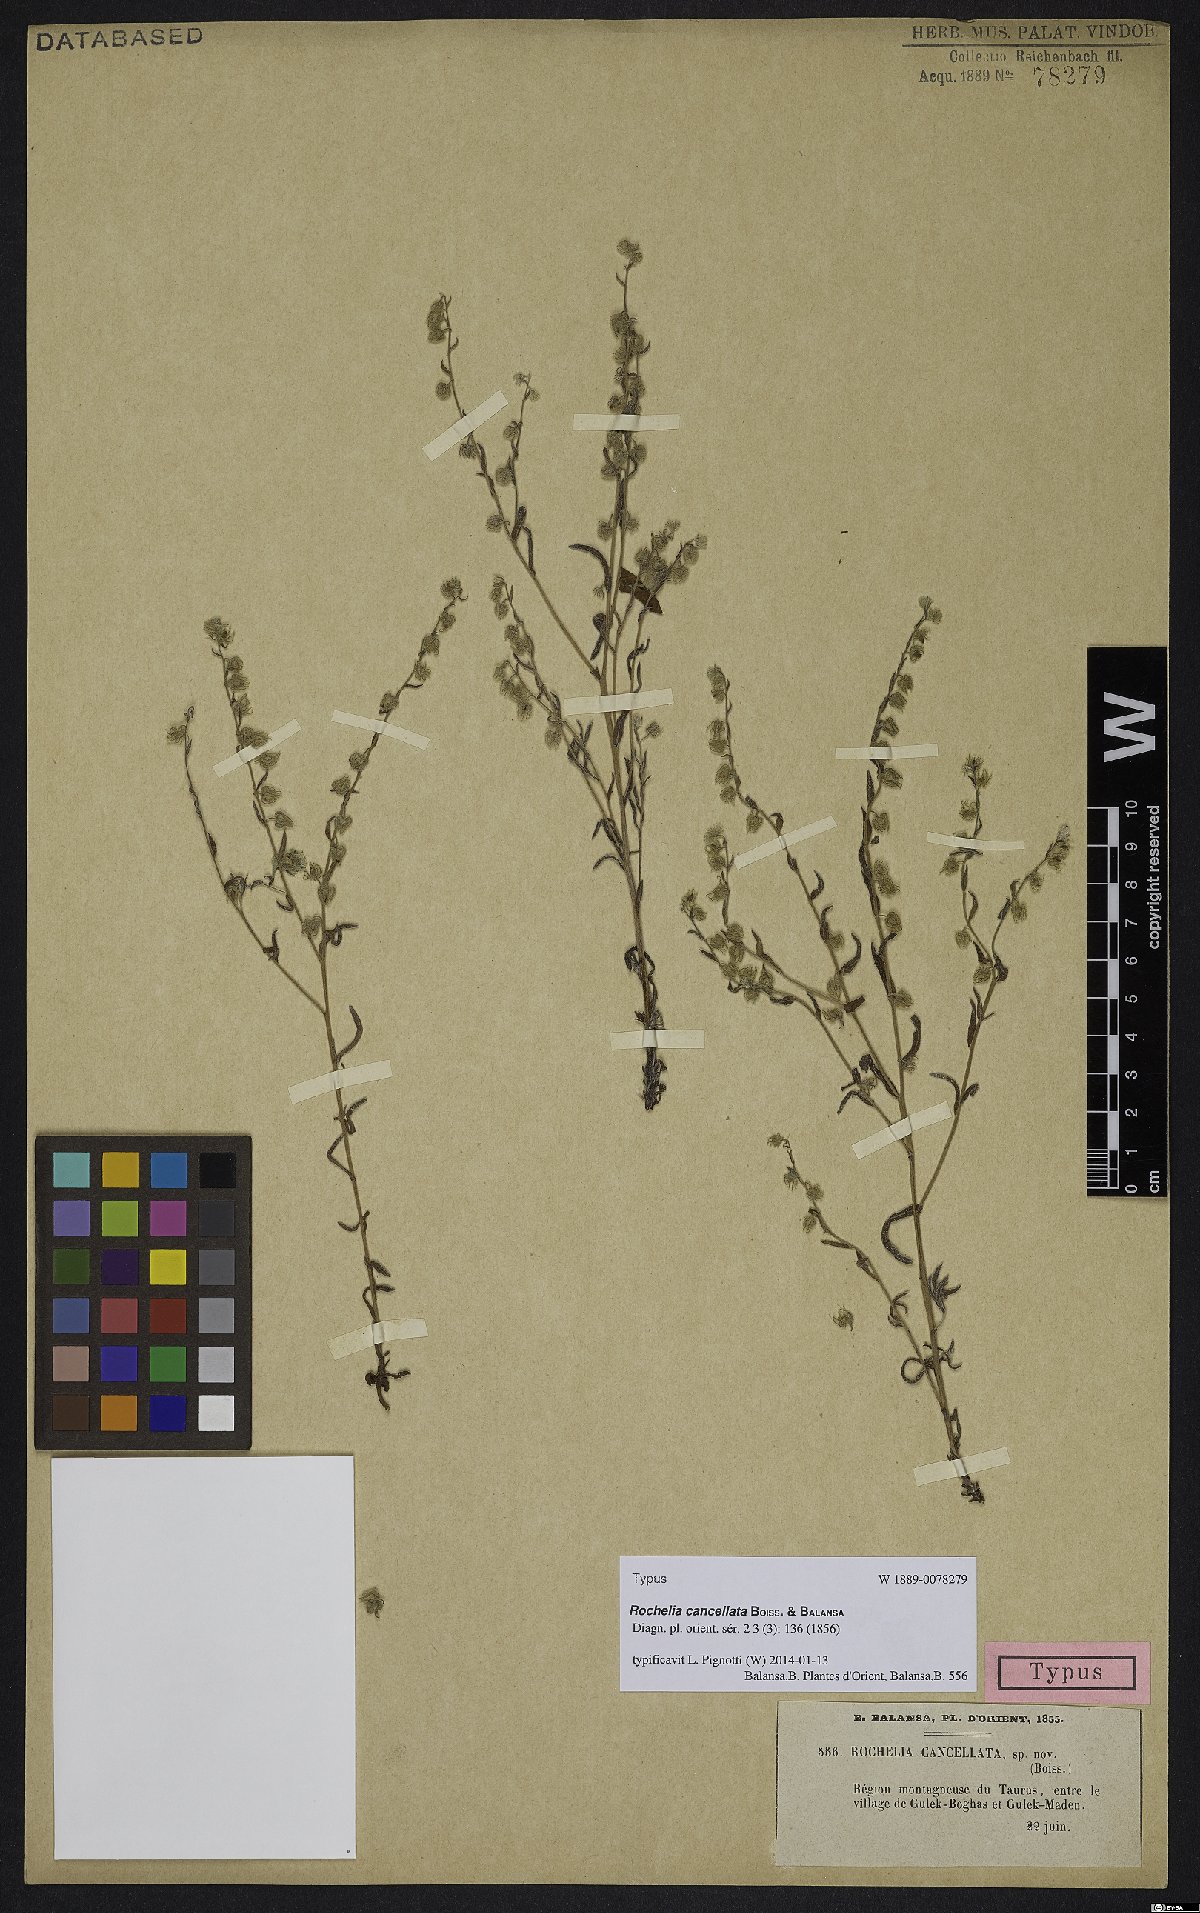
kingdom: Plantae
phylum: Tracheophyta
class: Magnoliopsida
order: Boraginales
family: Boraginaceae
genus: Rochelia
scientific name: Rochelia cancellata
